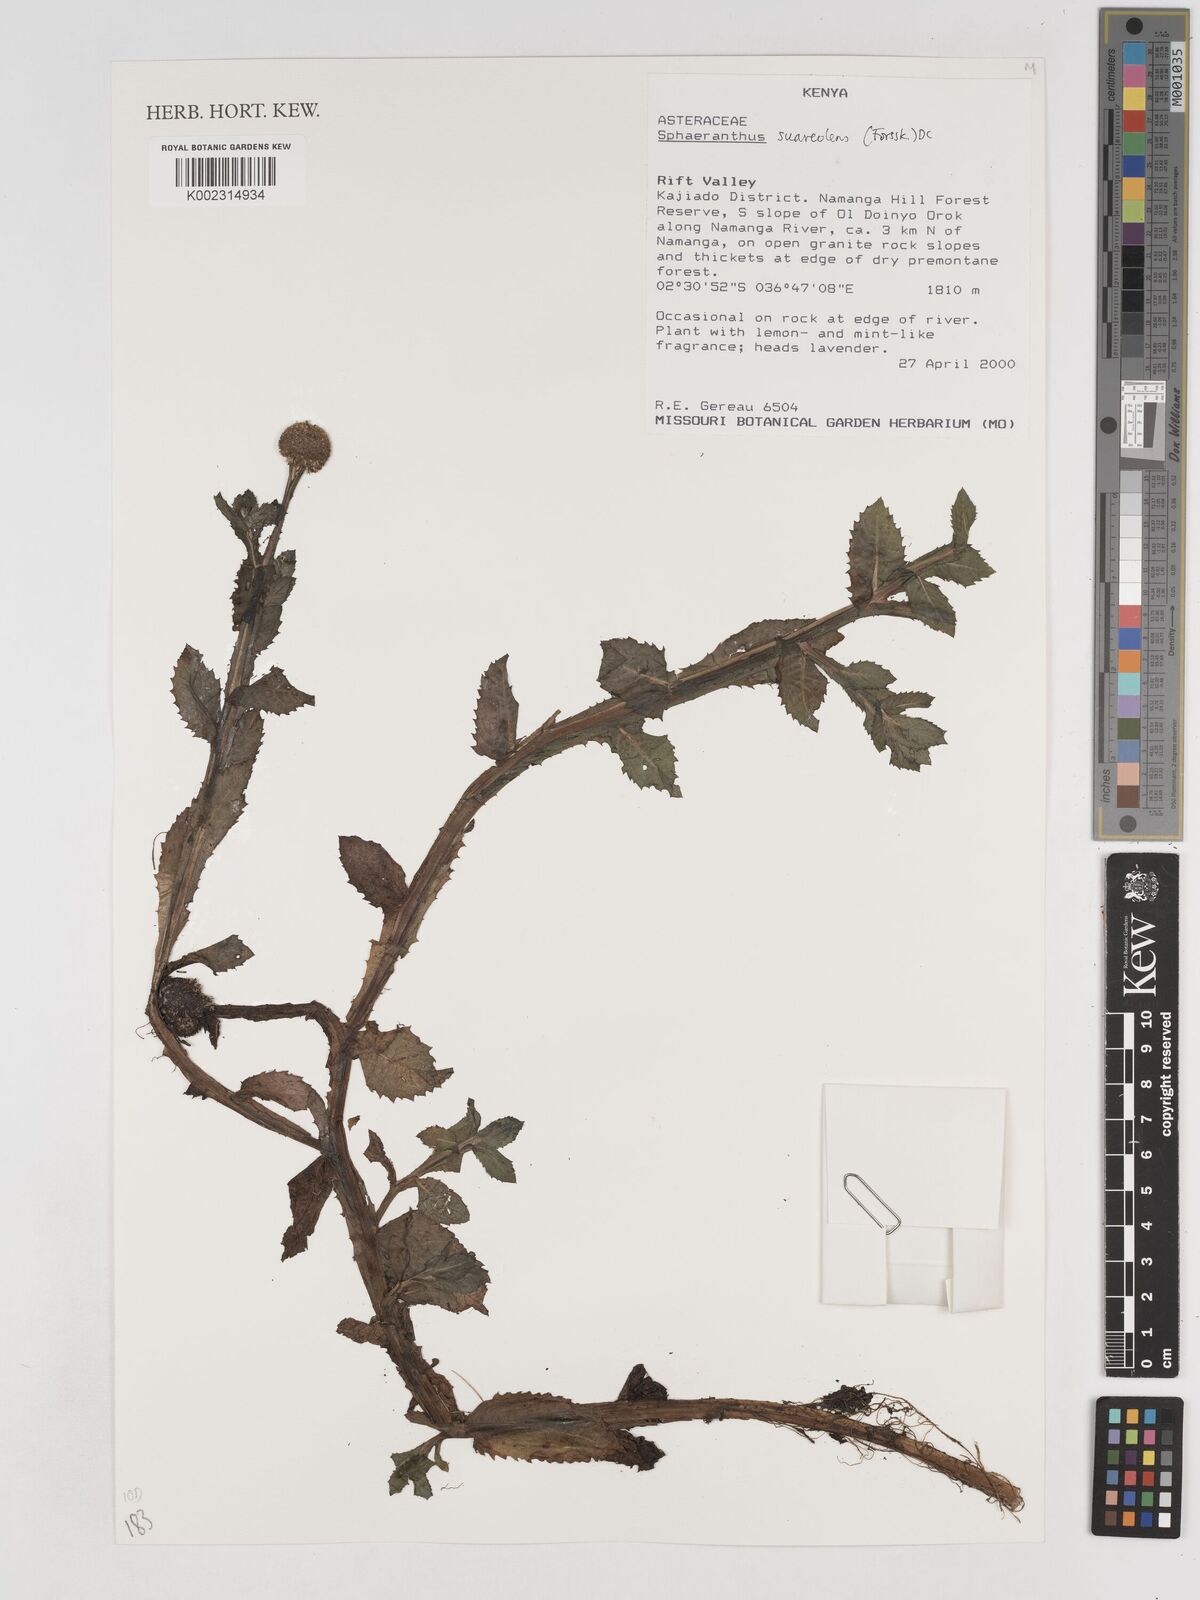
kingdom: Plantae
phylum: Tracheophyta
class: Magnoliopsida
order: Asterales
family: Asteraceae
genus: Sphaeranthus
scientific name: Sphaeranthus suaveolens
